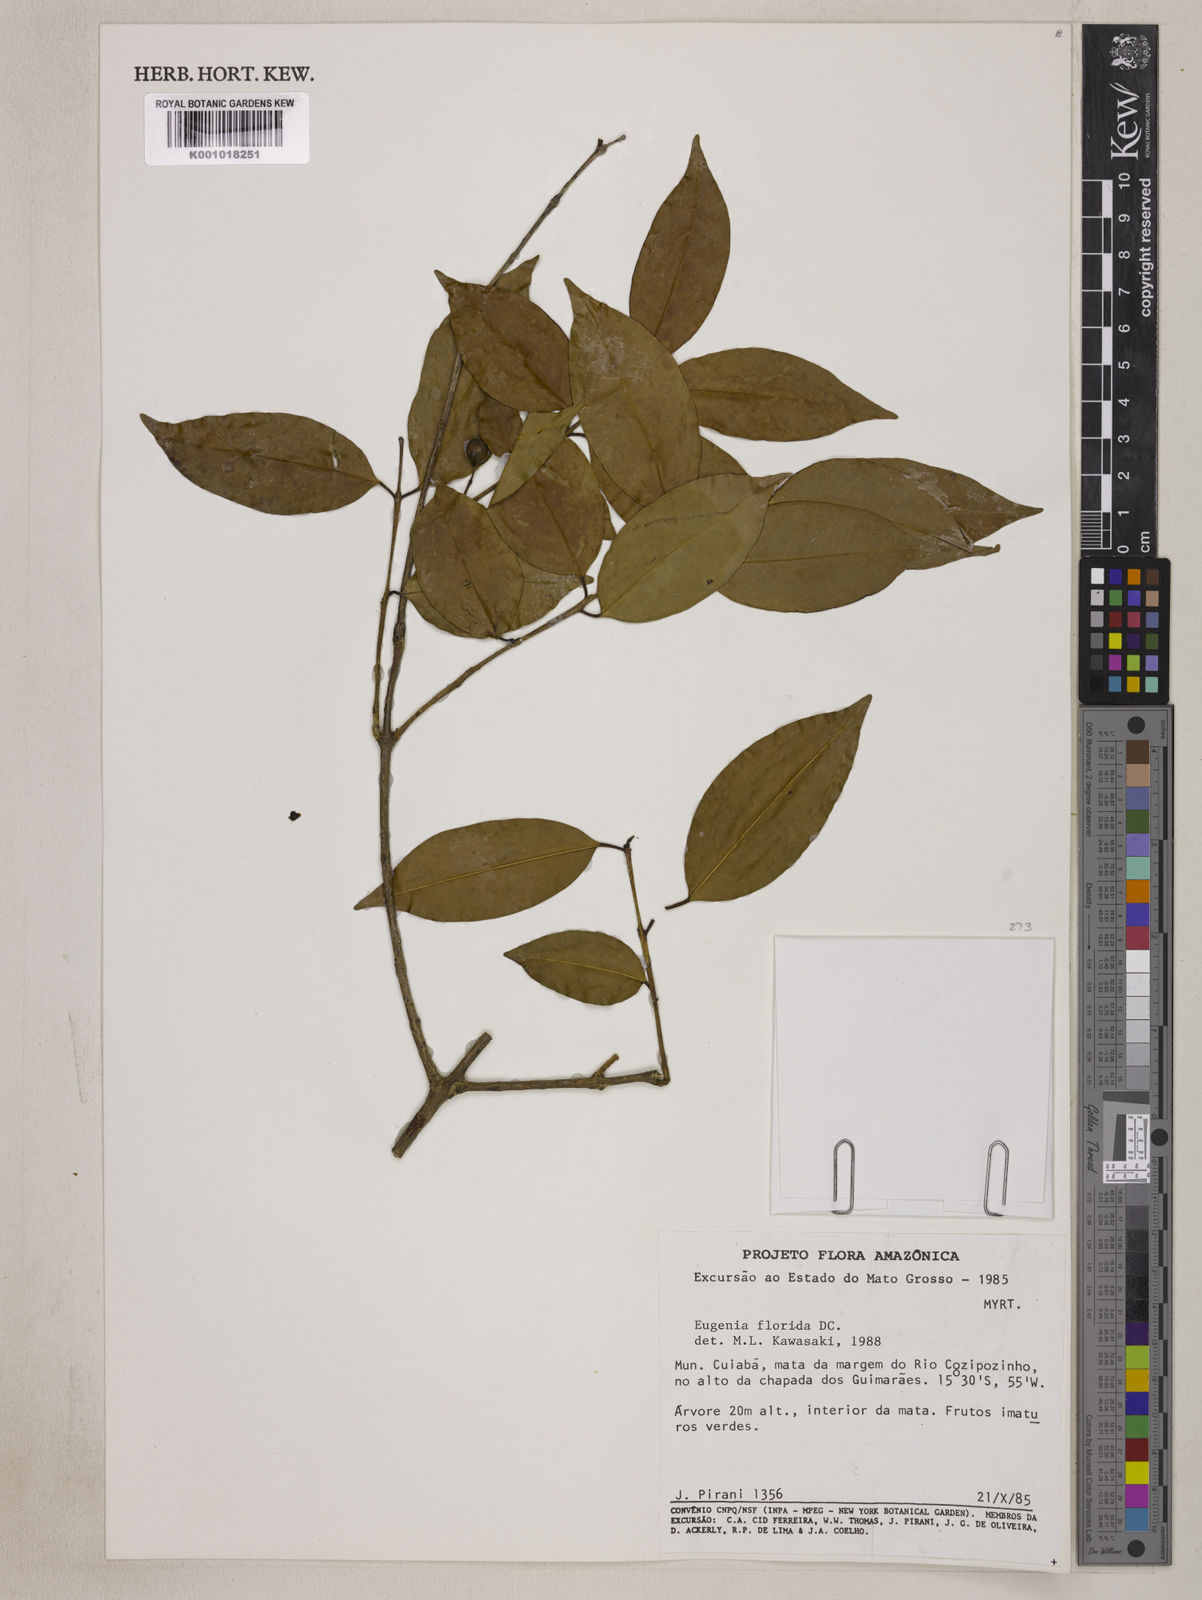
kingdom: Plantae
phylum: Tracheophyta
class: Magnoliopsida
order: Myrtales
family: Myrtaceae
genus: Eugenia
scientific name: Eugenia florida
